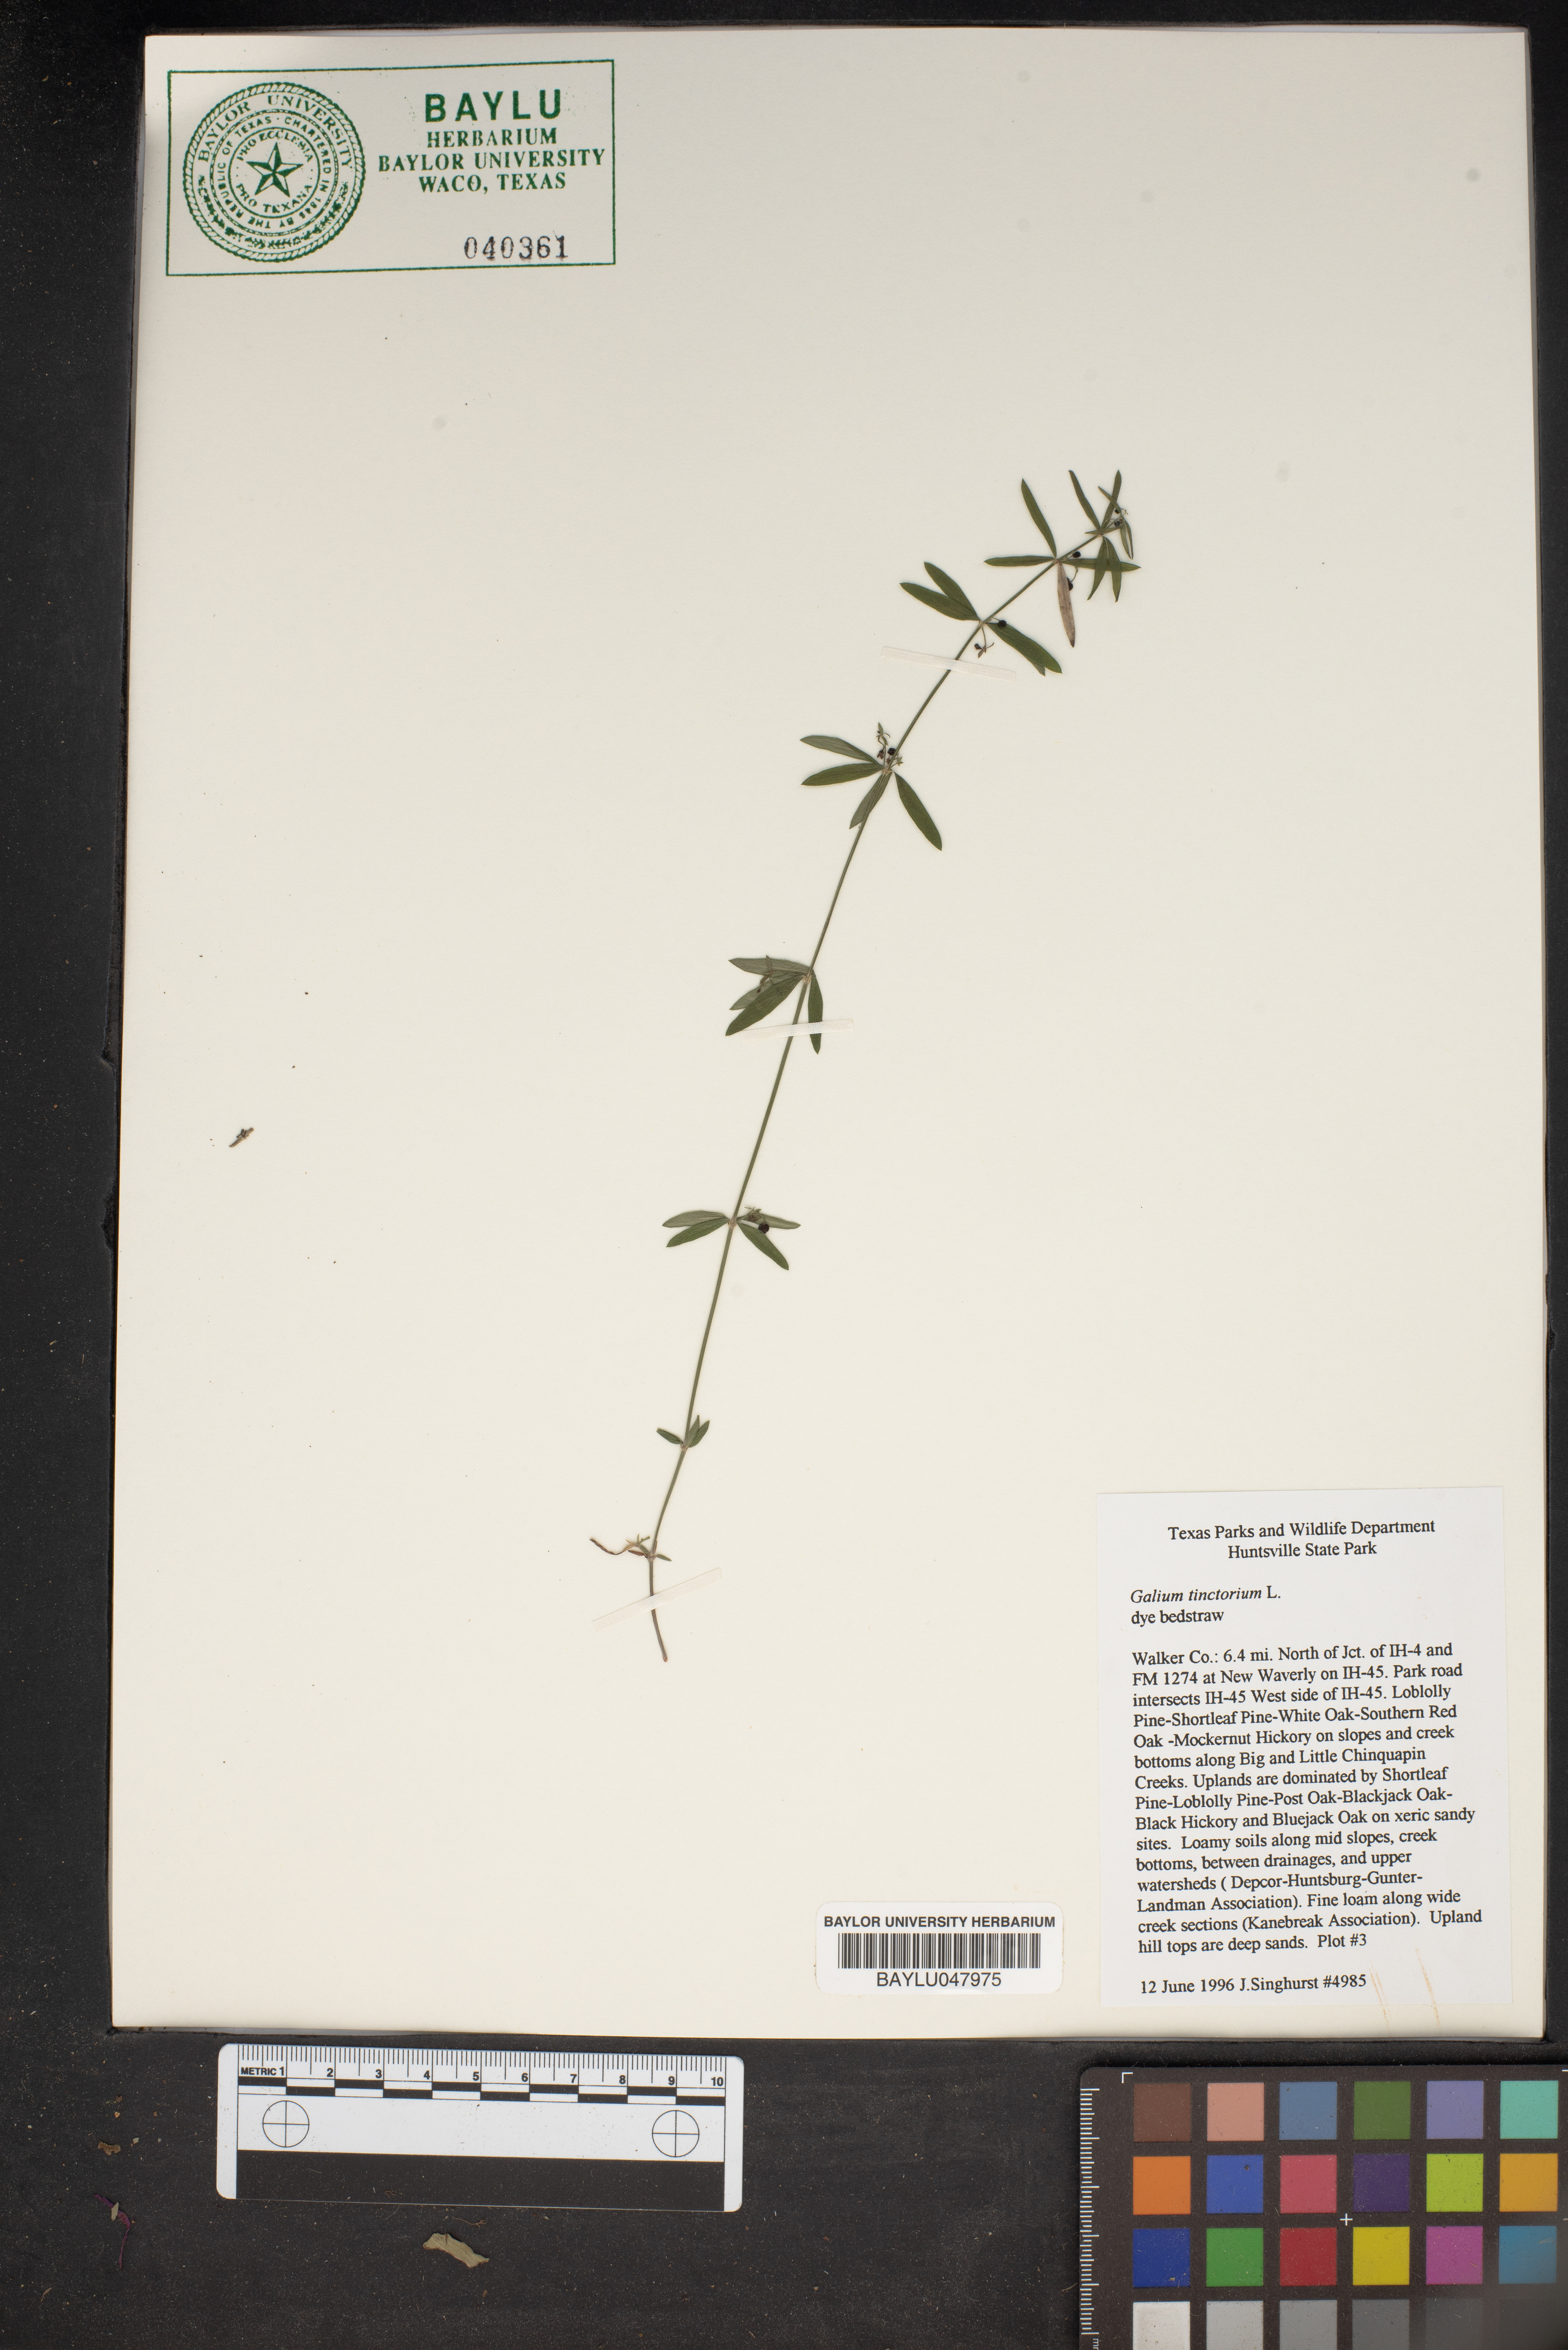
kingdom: Plantae
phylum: Tracheophyta
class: Magnoliopsida
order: Gentianales
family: Rubiaceae
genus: Asperula
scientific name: Asperula tinctoria
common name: Dyer's woodruff
